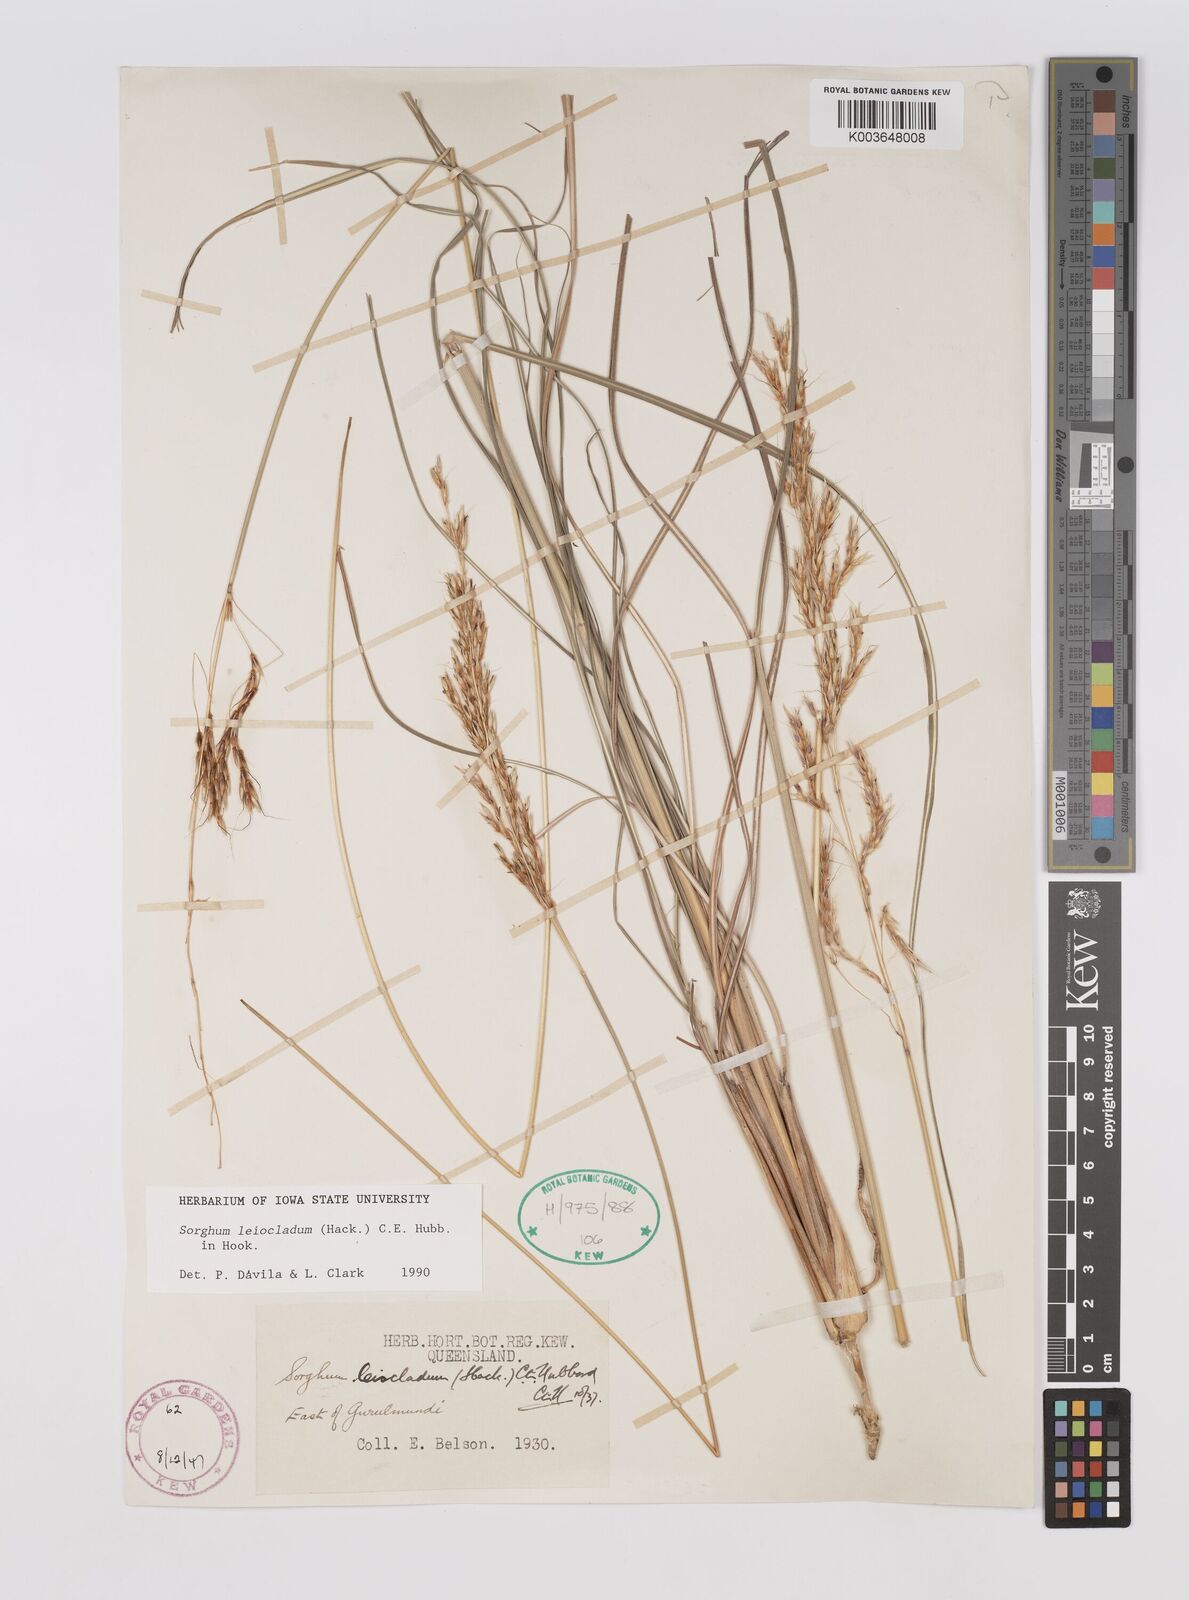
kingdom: Plantae
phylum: Tracheophyta
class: Liliopsida
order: Poales
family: Poaceae
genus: Sarga
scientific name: Sarga leioclada
